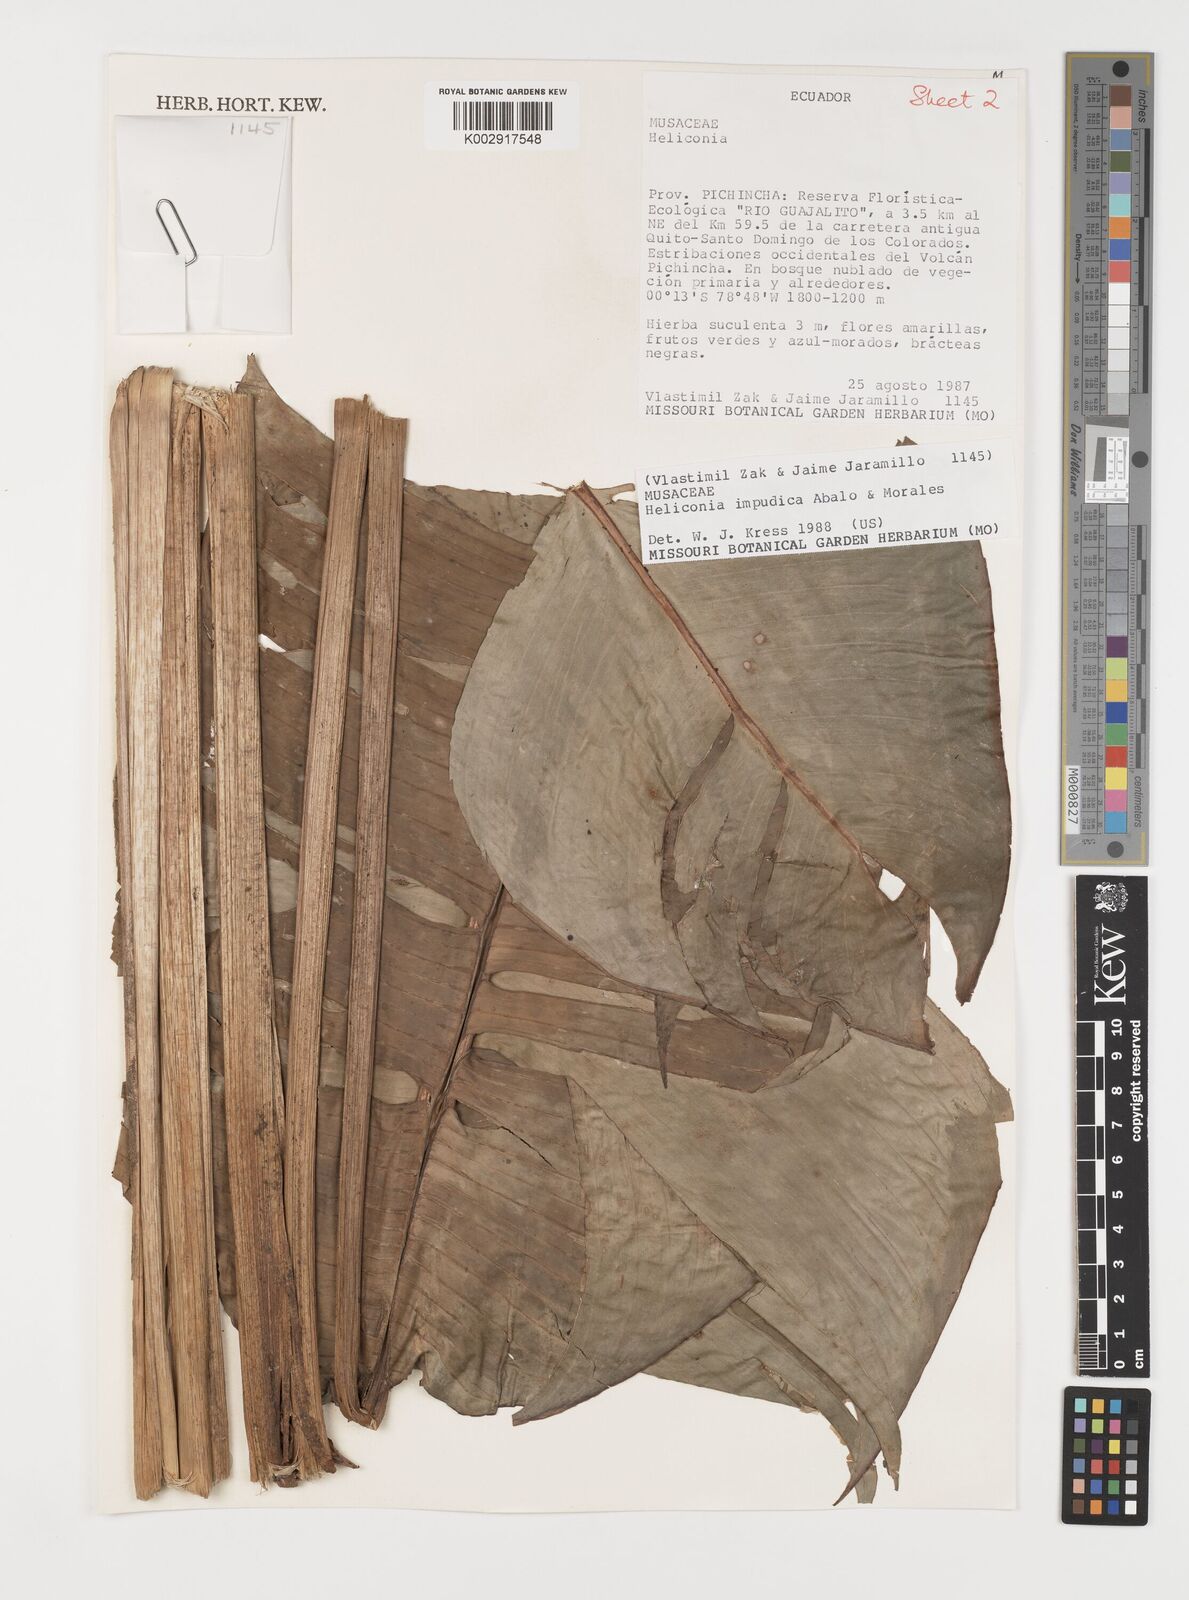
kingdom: Plantae
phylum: Tracheophyta
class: Liliopsida
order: Zingiberales
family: Heliconiaceae
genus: Heliconia
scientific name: Heliconia impudica
